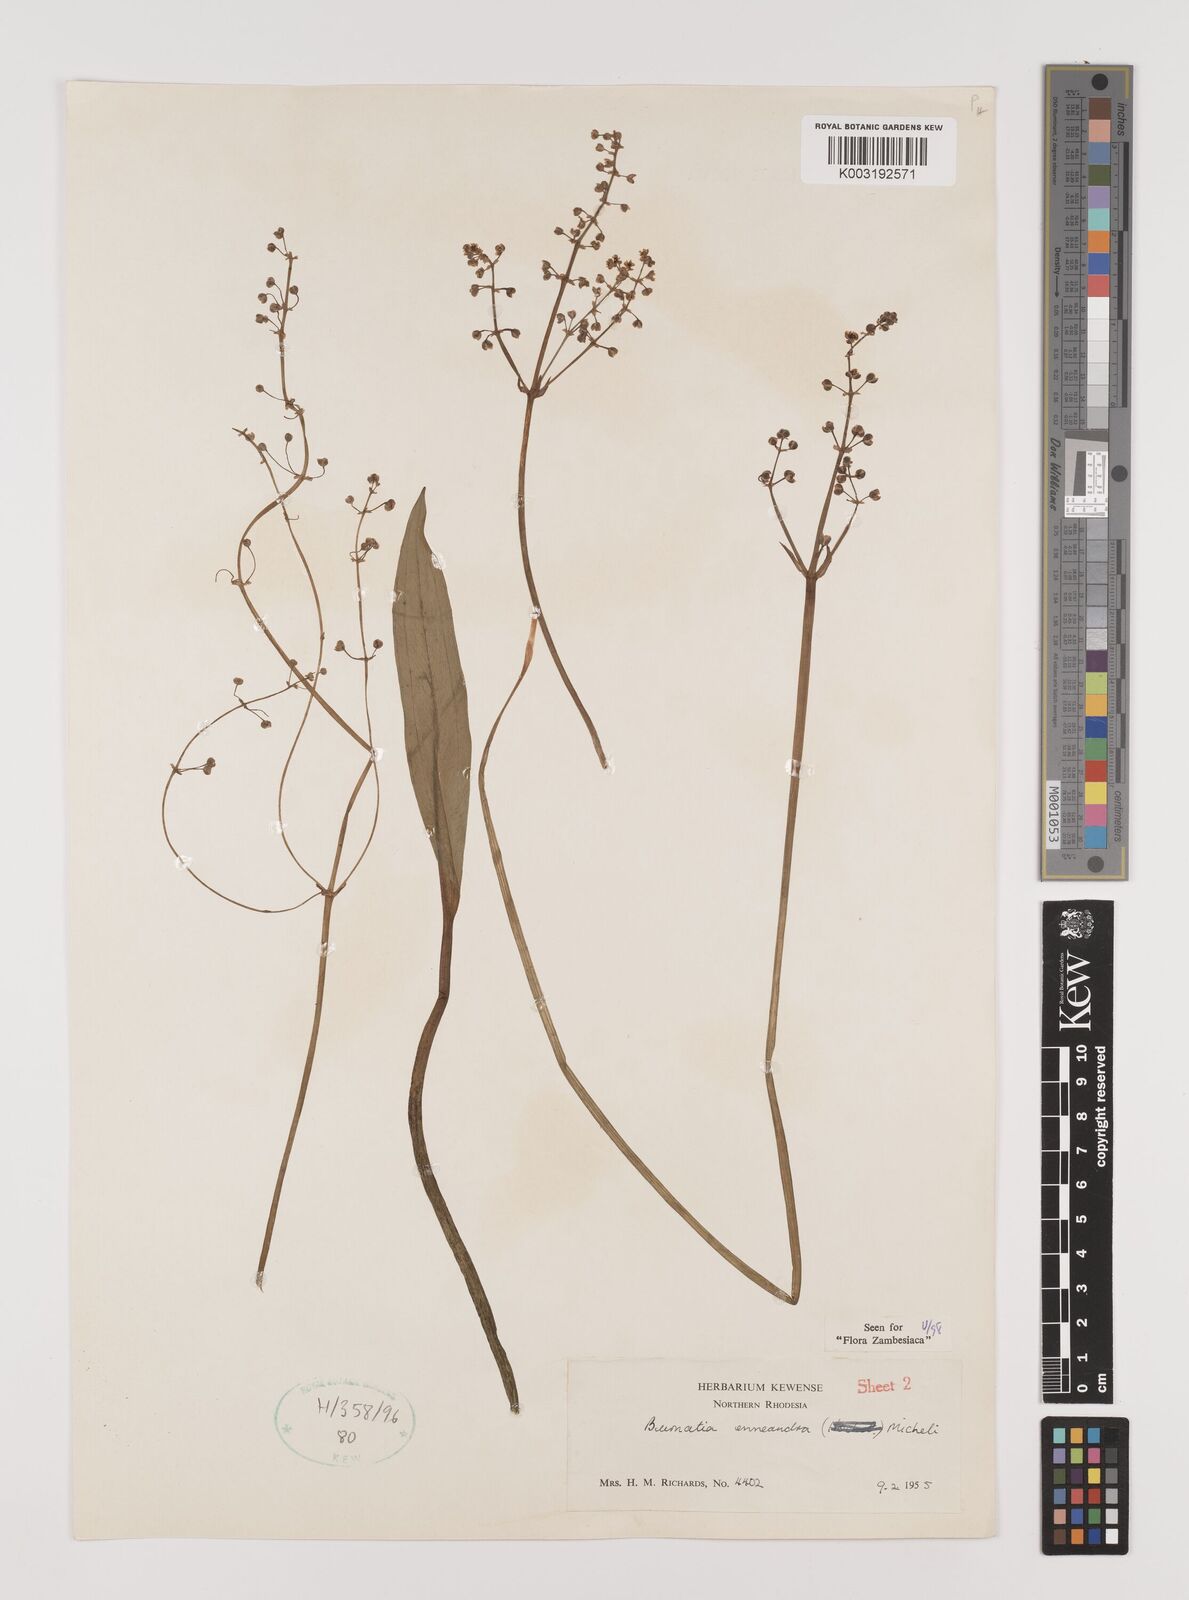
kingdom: Plantae
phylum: Tracheophyta
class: Liliopsida
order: Alismatales
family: Alismataceae
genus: Burnatia
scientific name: Burnatia enneandra
